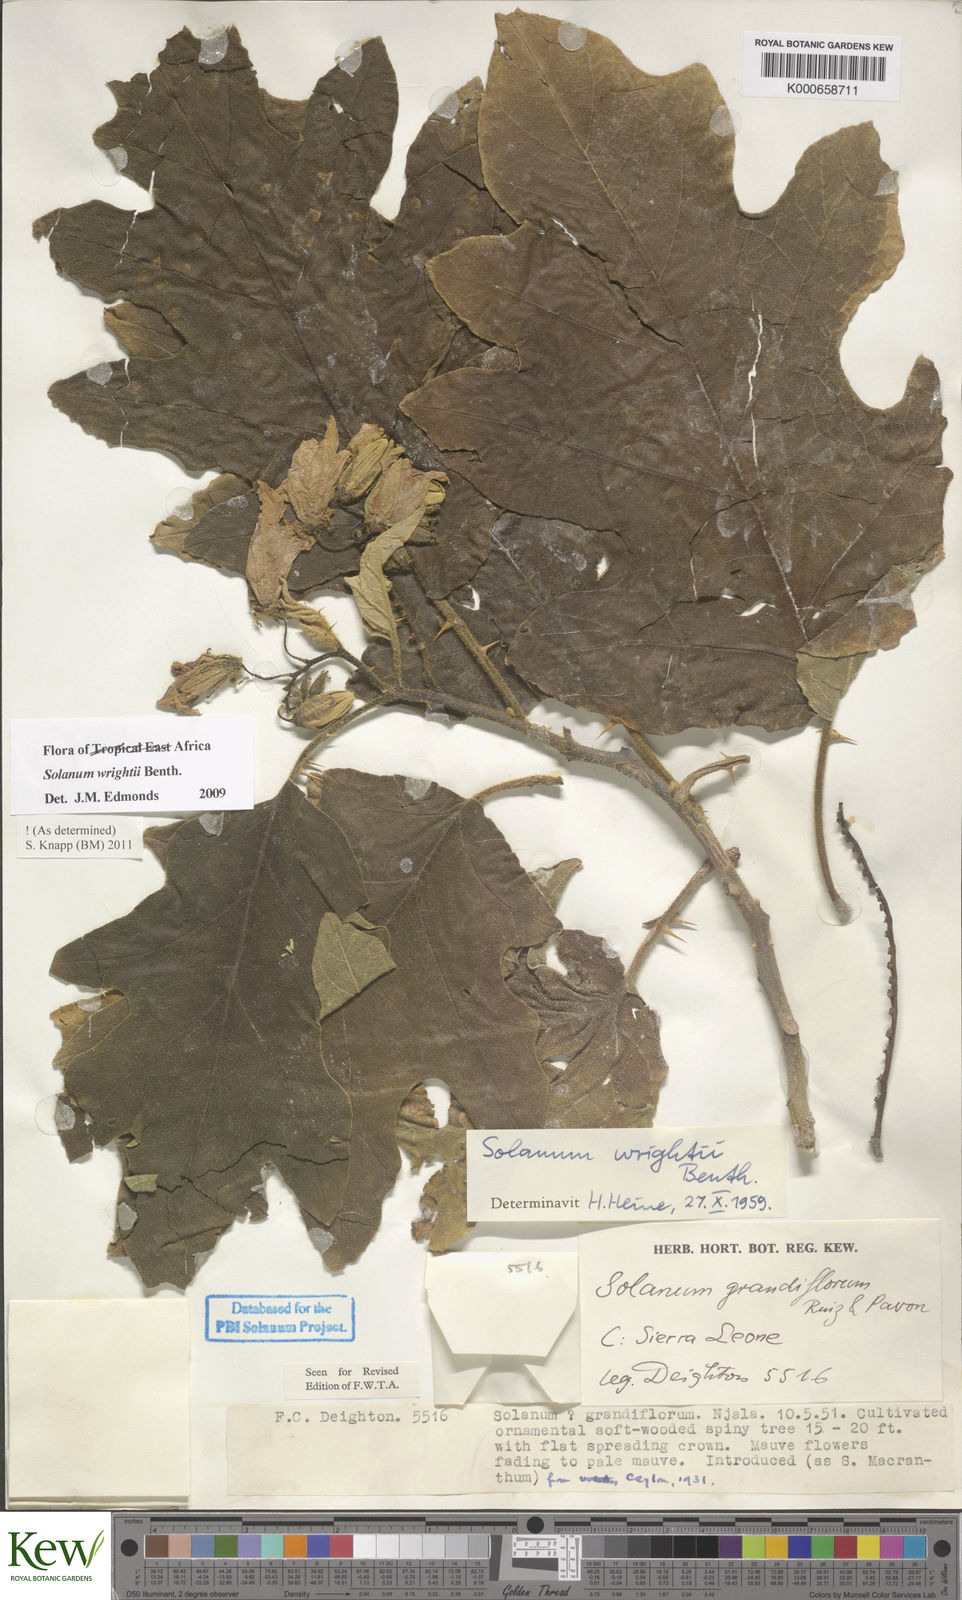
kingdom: Plantae
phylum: Tracheophyta
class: Magnoliopsida
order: Solanales
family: Solanaceae
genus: Solanum
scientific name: Solanum wrightii
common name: Brazilian potato-tree
